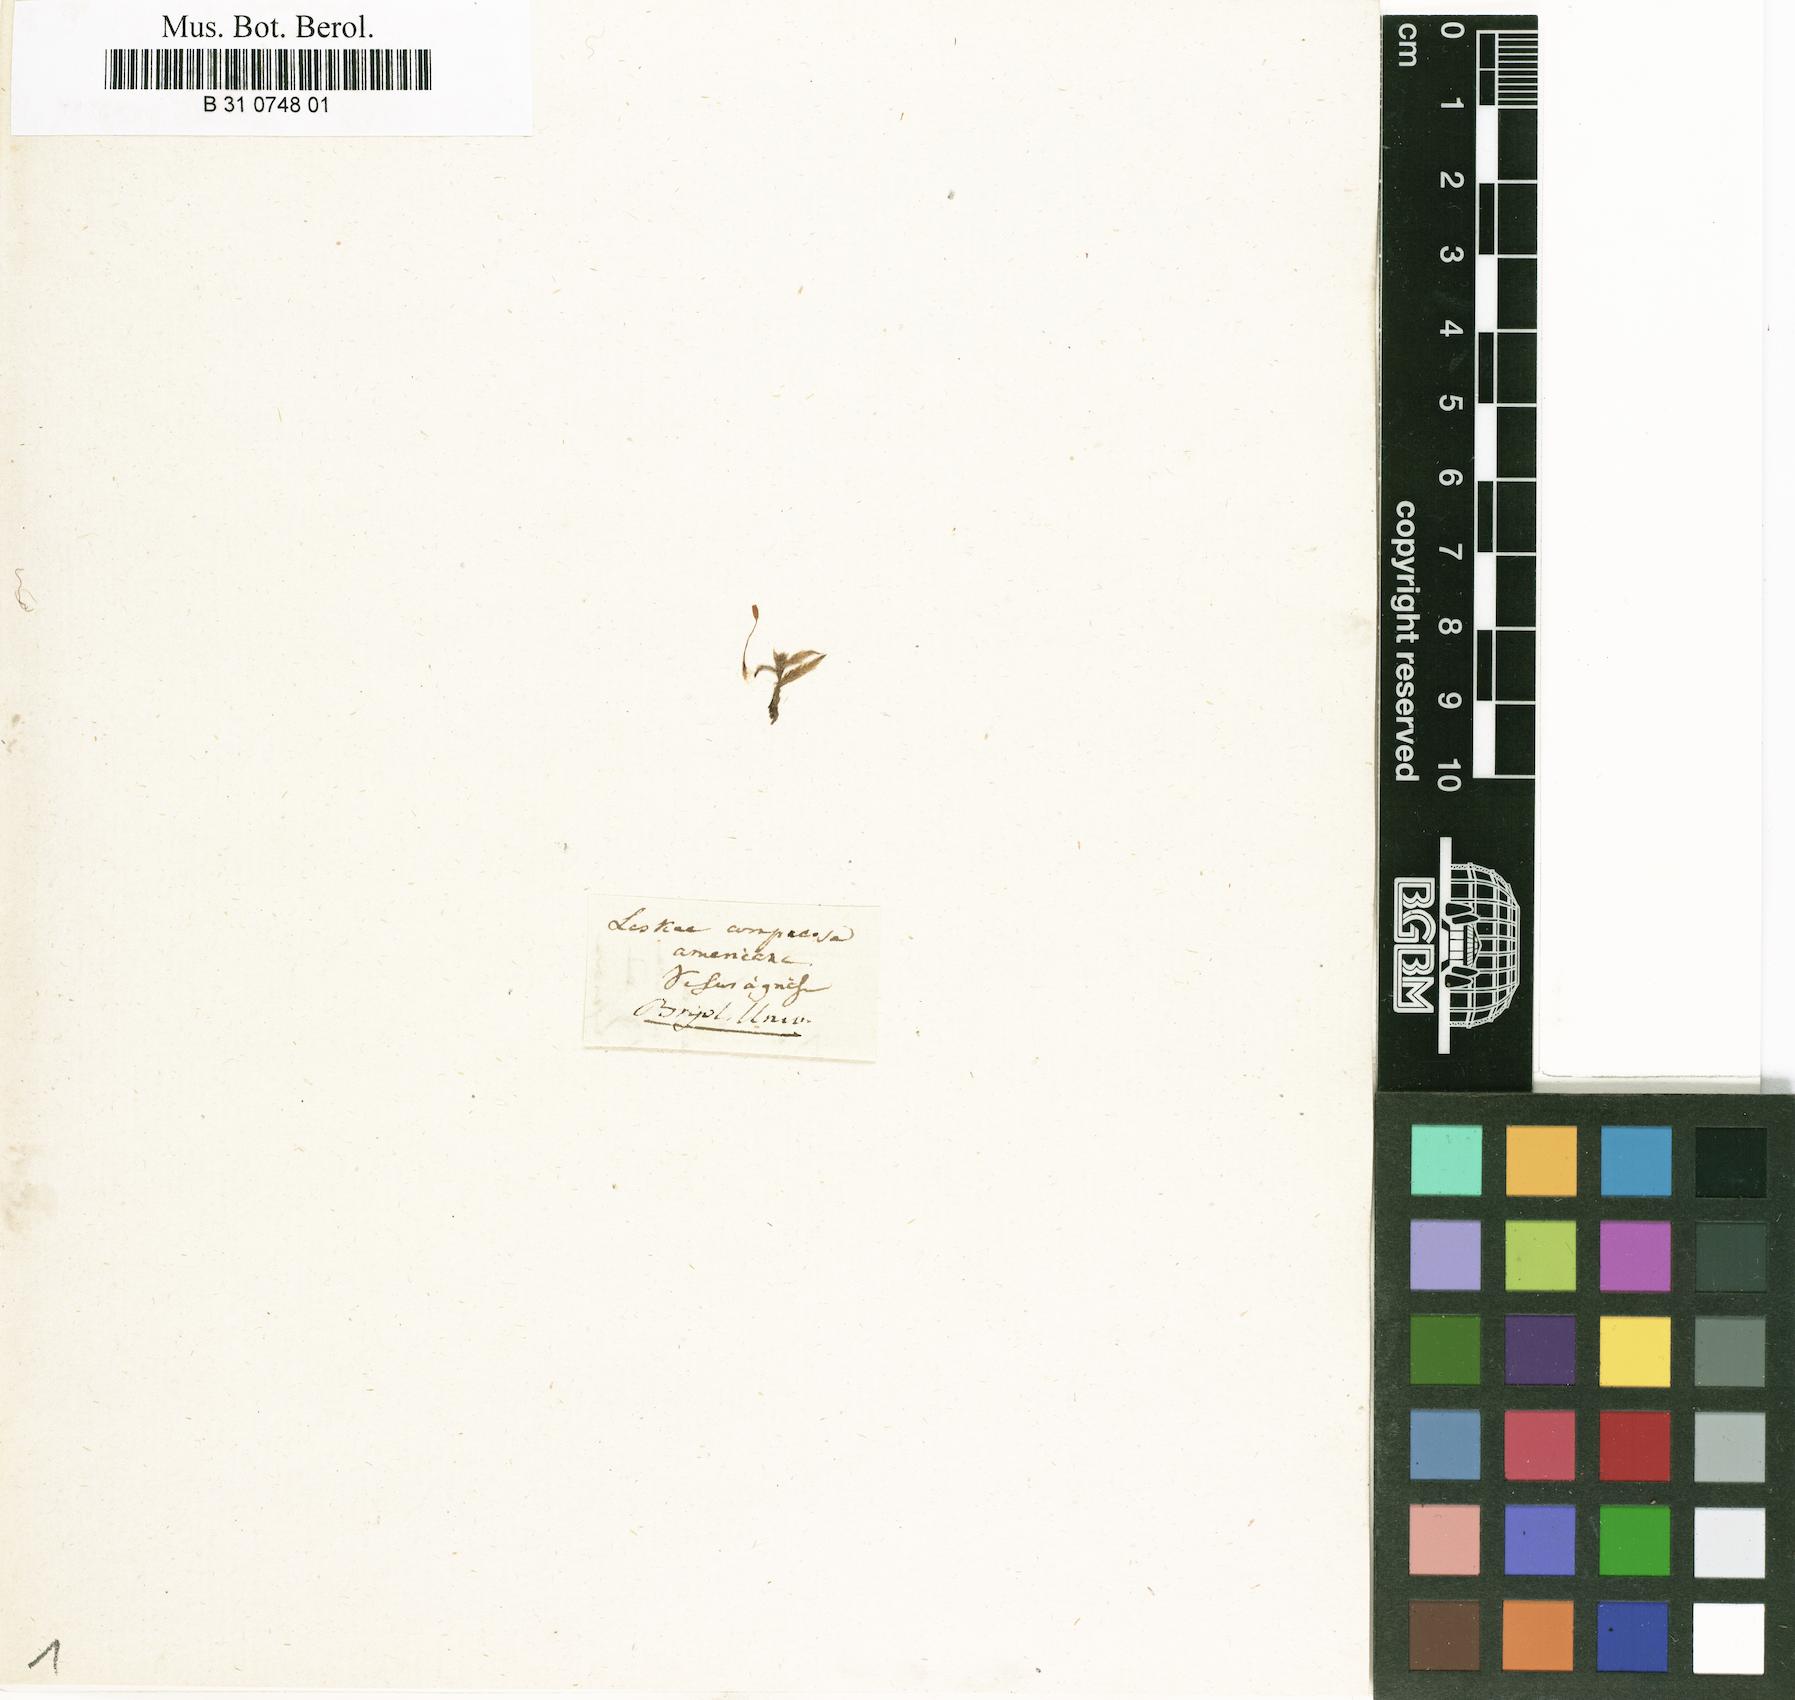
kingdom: Plantae
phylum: Bryophyta
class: Bryopsida
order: Hypnales
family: Entodontaceae
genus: Entodon
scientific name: Entodon cladorrhizans
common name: Flat-stemmed entodon moss
